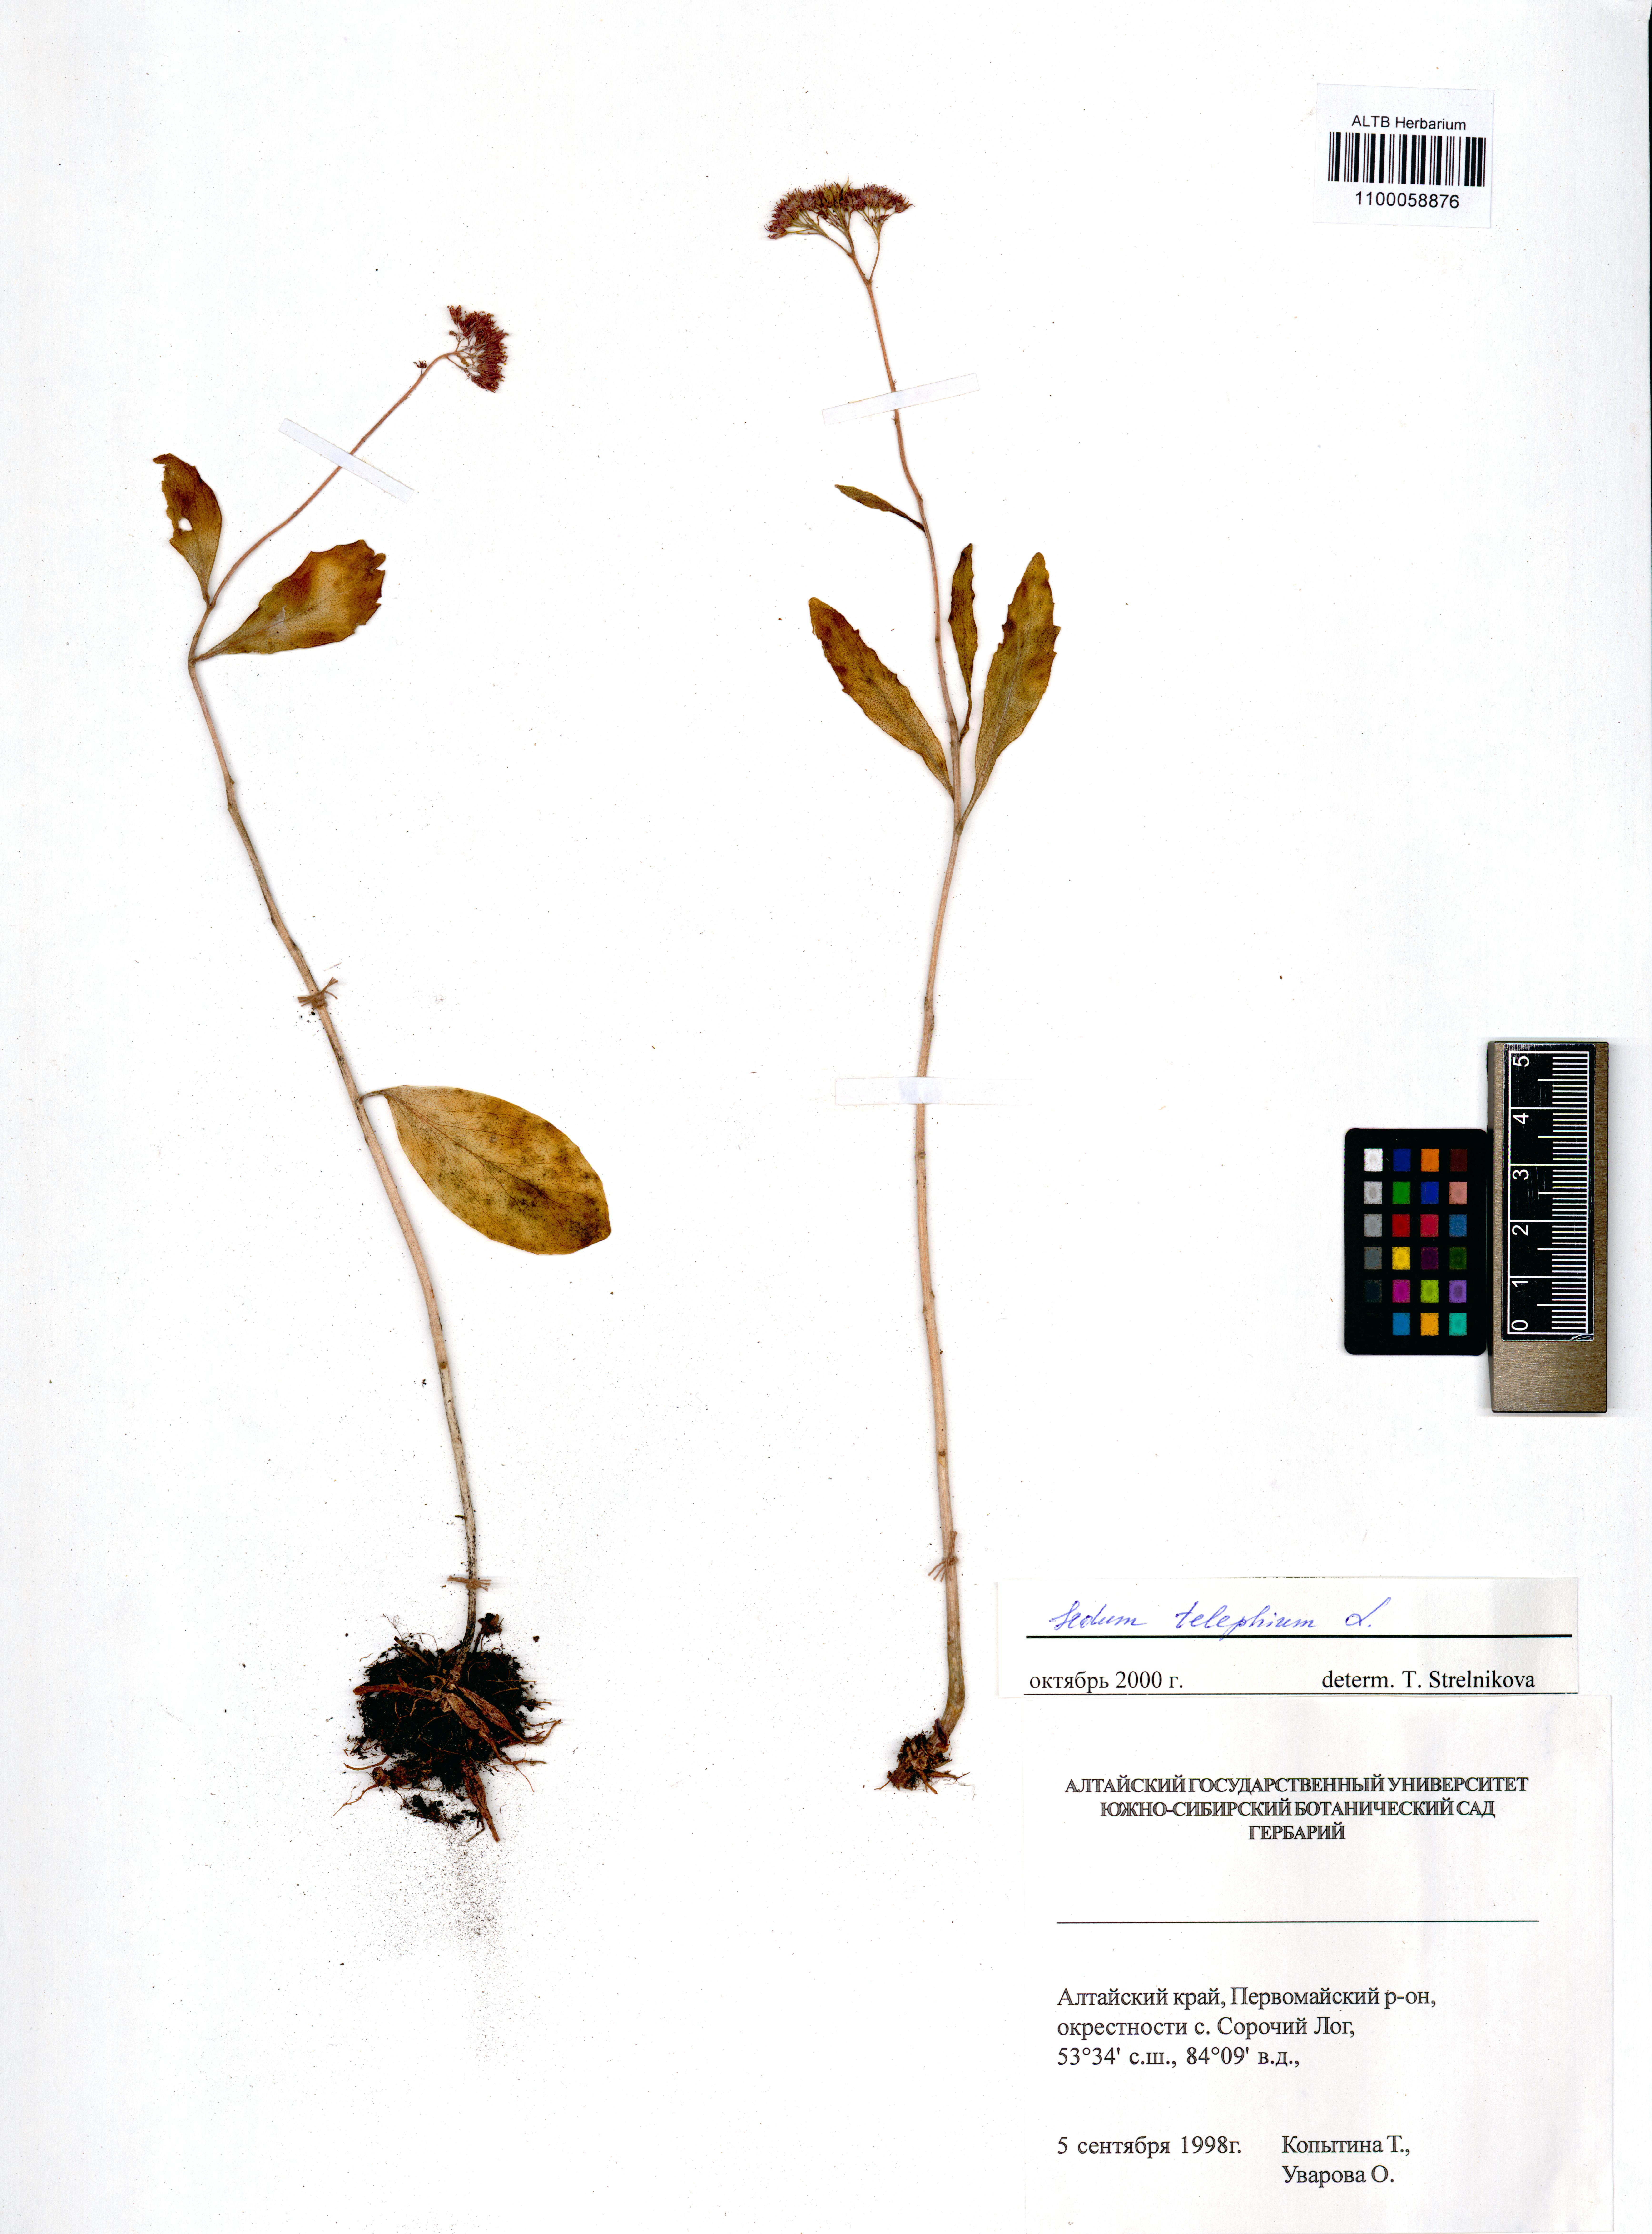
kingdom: Plantae
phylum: Tracheophyta
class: Magnoliopsida
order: Saxifragales
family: Crassulaceae
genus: Hylotelephium
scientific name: Hylotelephium telephium
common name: Live-forever
